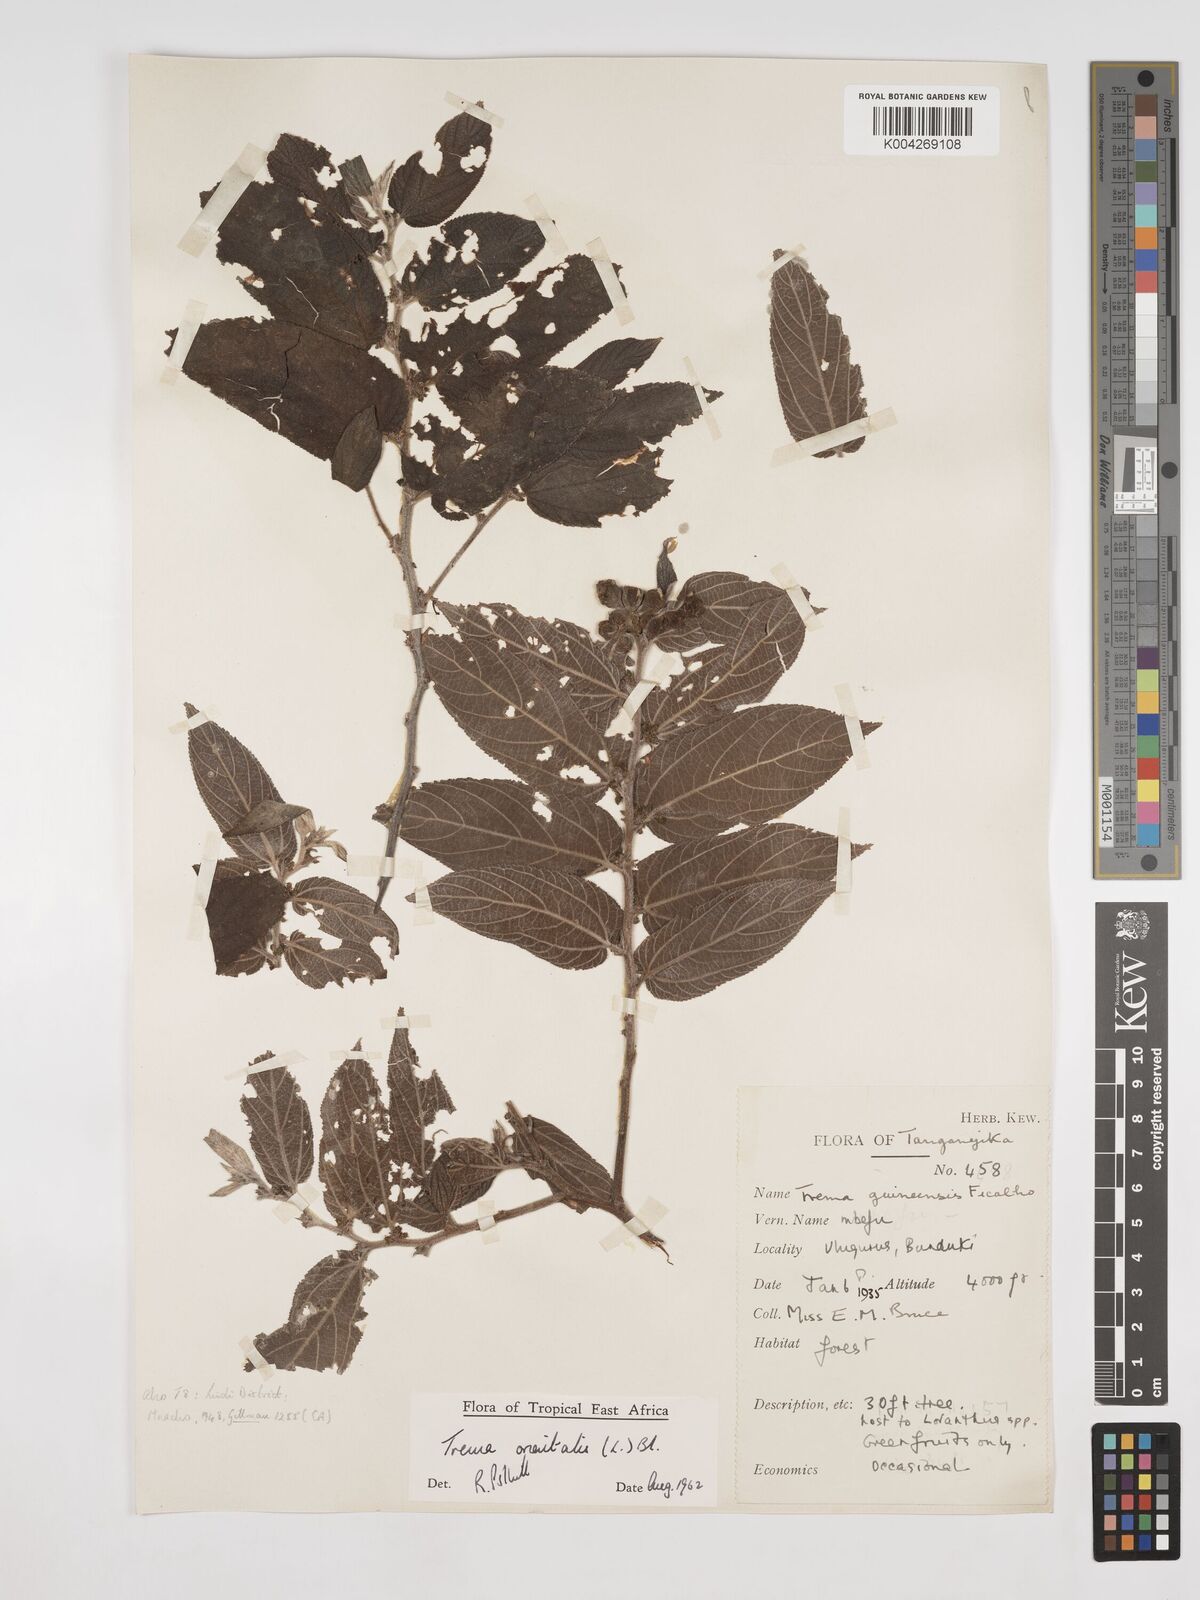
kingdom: Plantae
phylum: Tracheophyta
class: Magnoliopsida
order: Rosales
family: Cannabaceae
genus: Trema
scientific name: Trema orientale
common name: Indian charcoal tree
